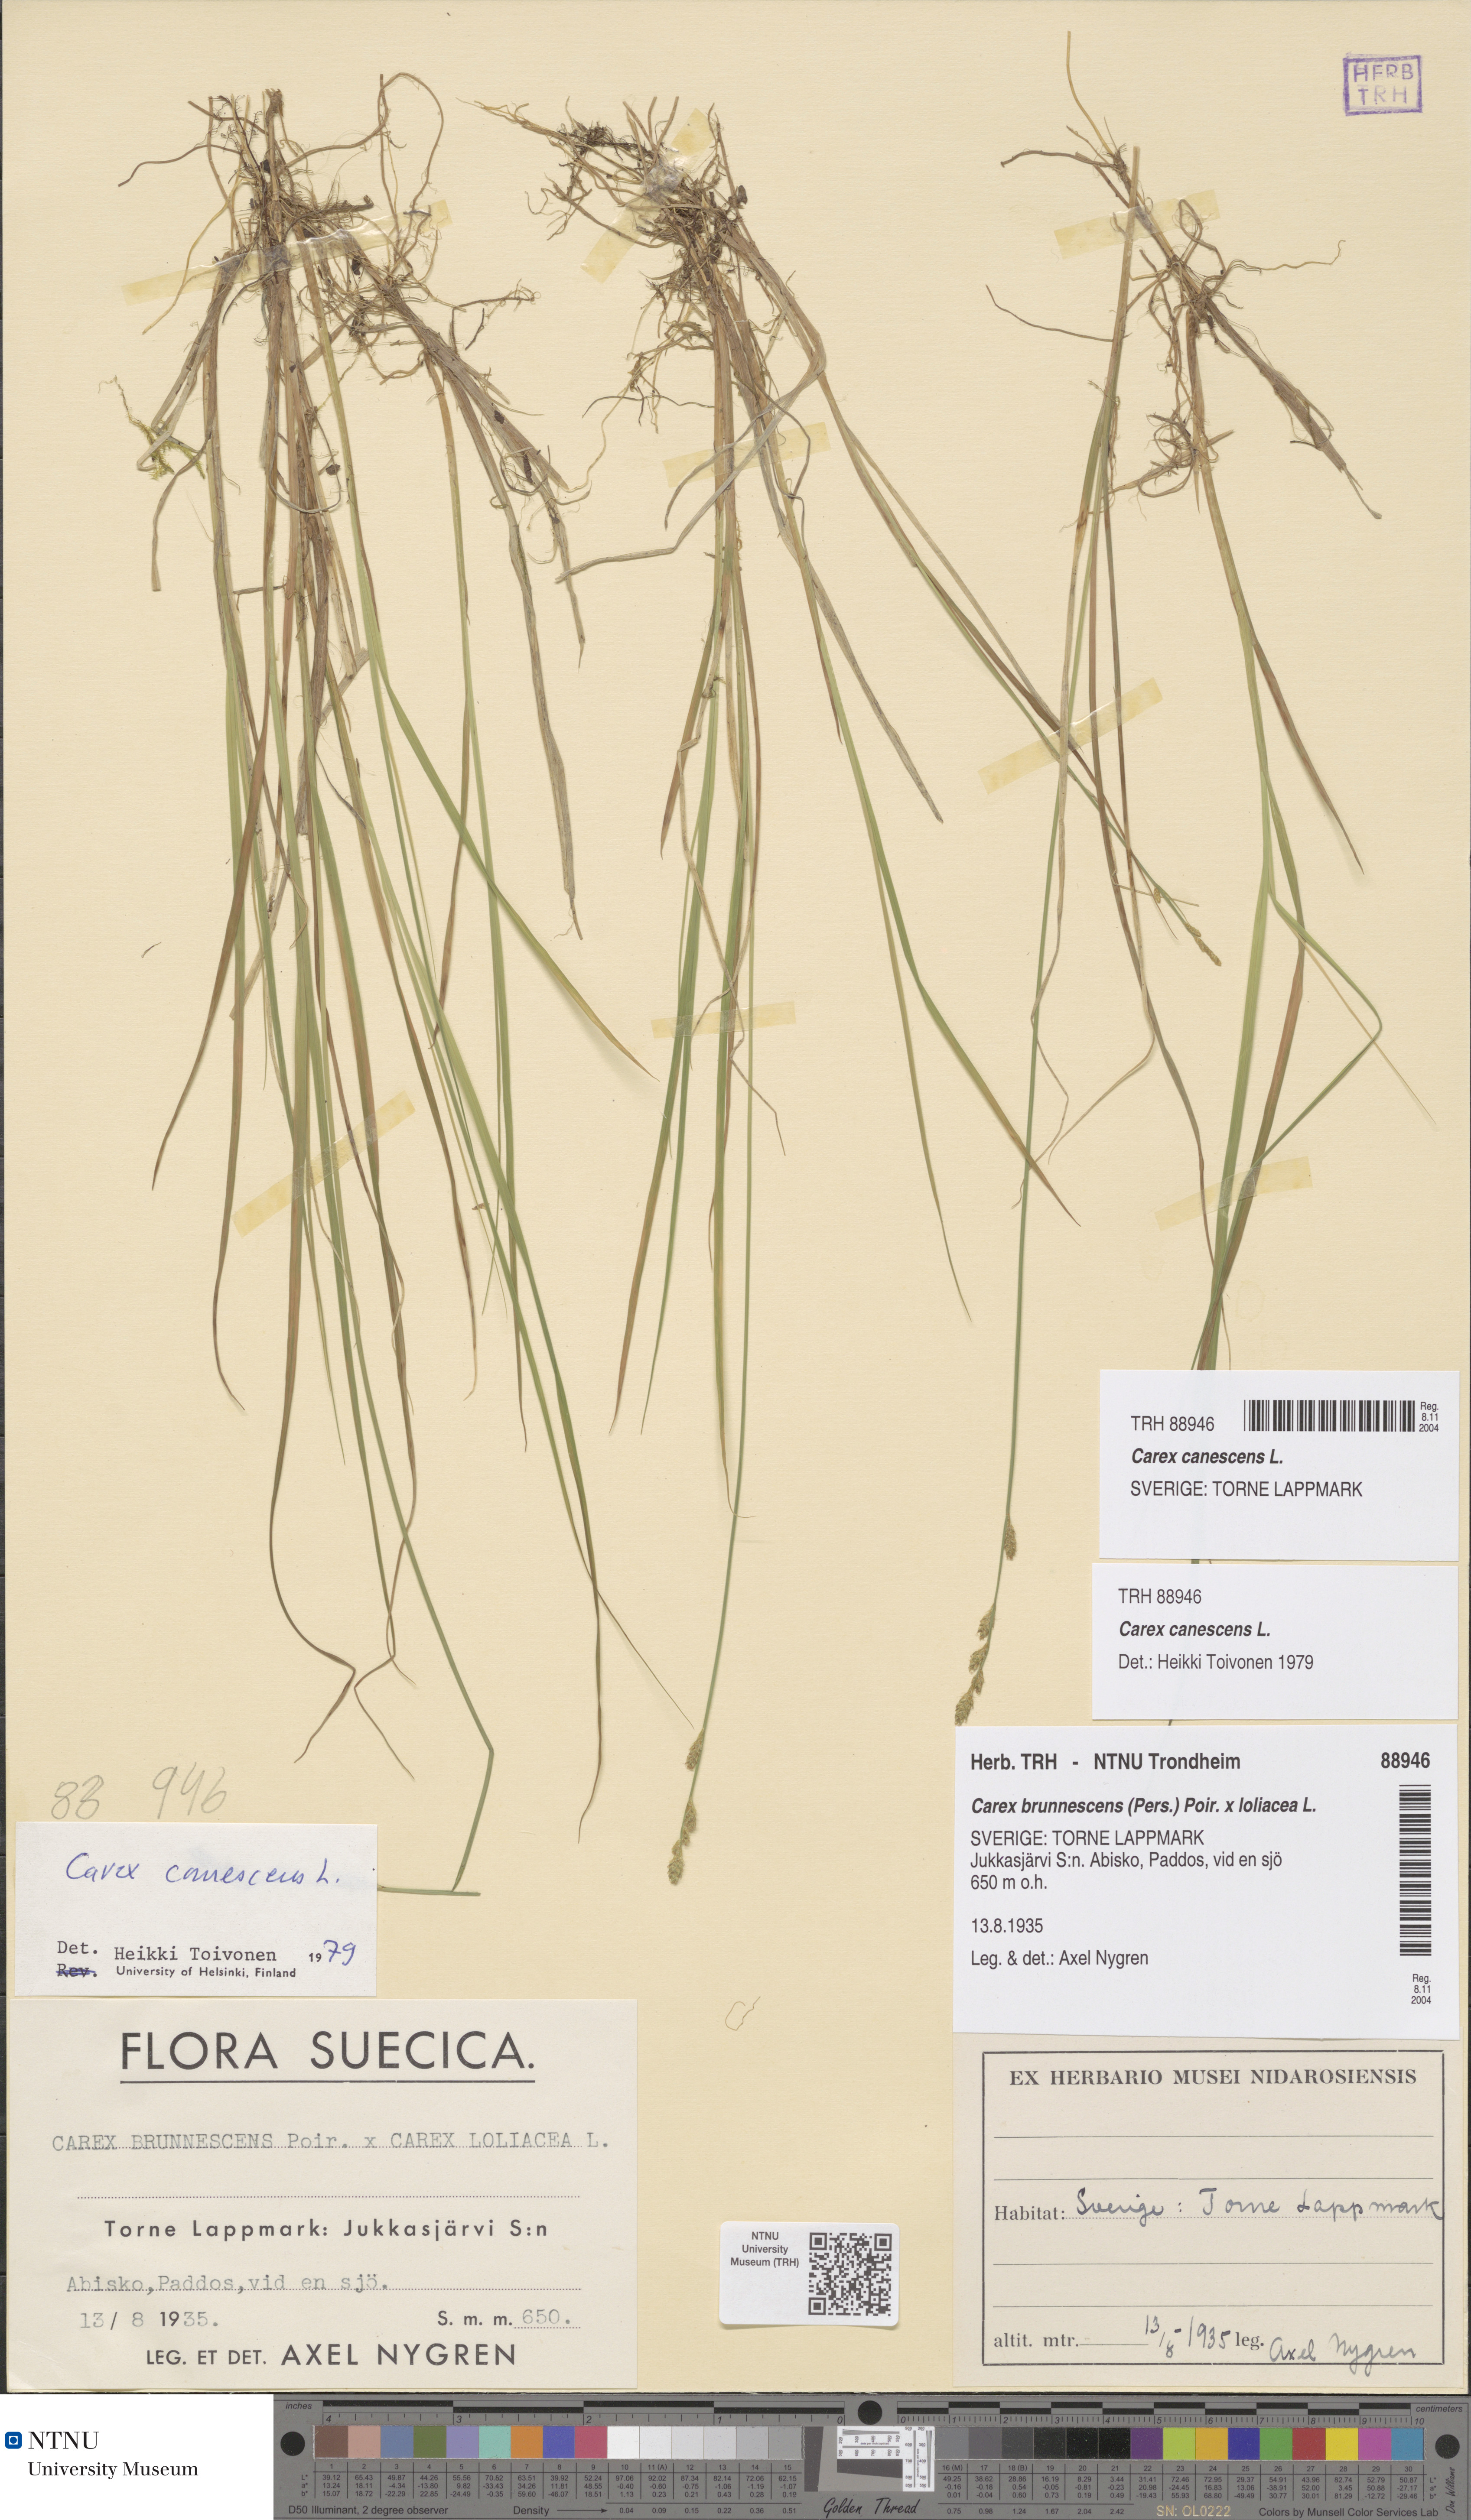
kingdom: Plantae
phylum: Tracheophyta
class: Liliopsida
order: Poales
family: Cyperaceae
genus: Carex
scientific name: Carex canescens
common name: White sedge
